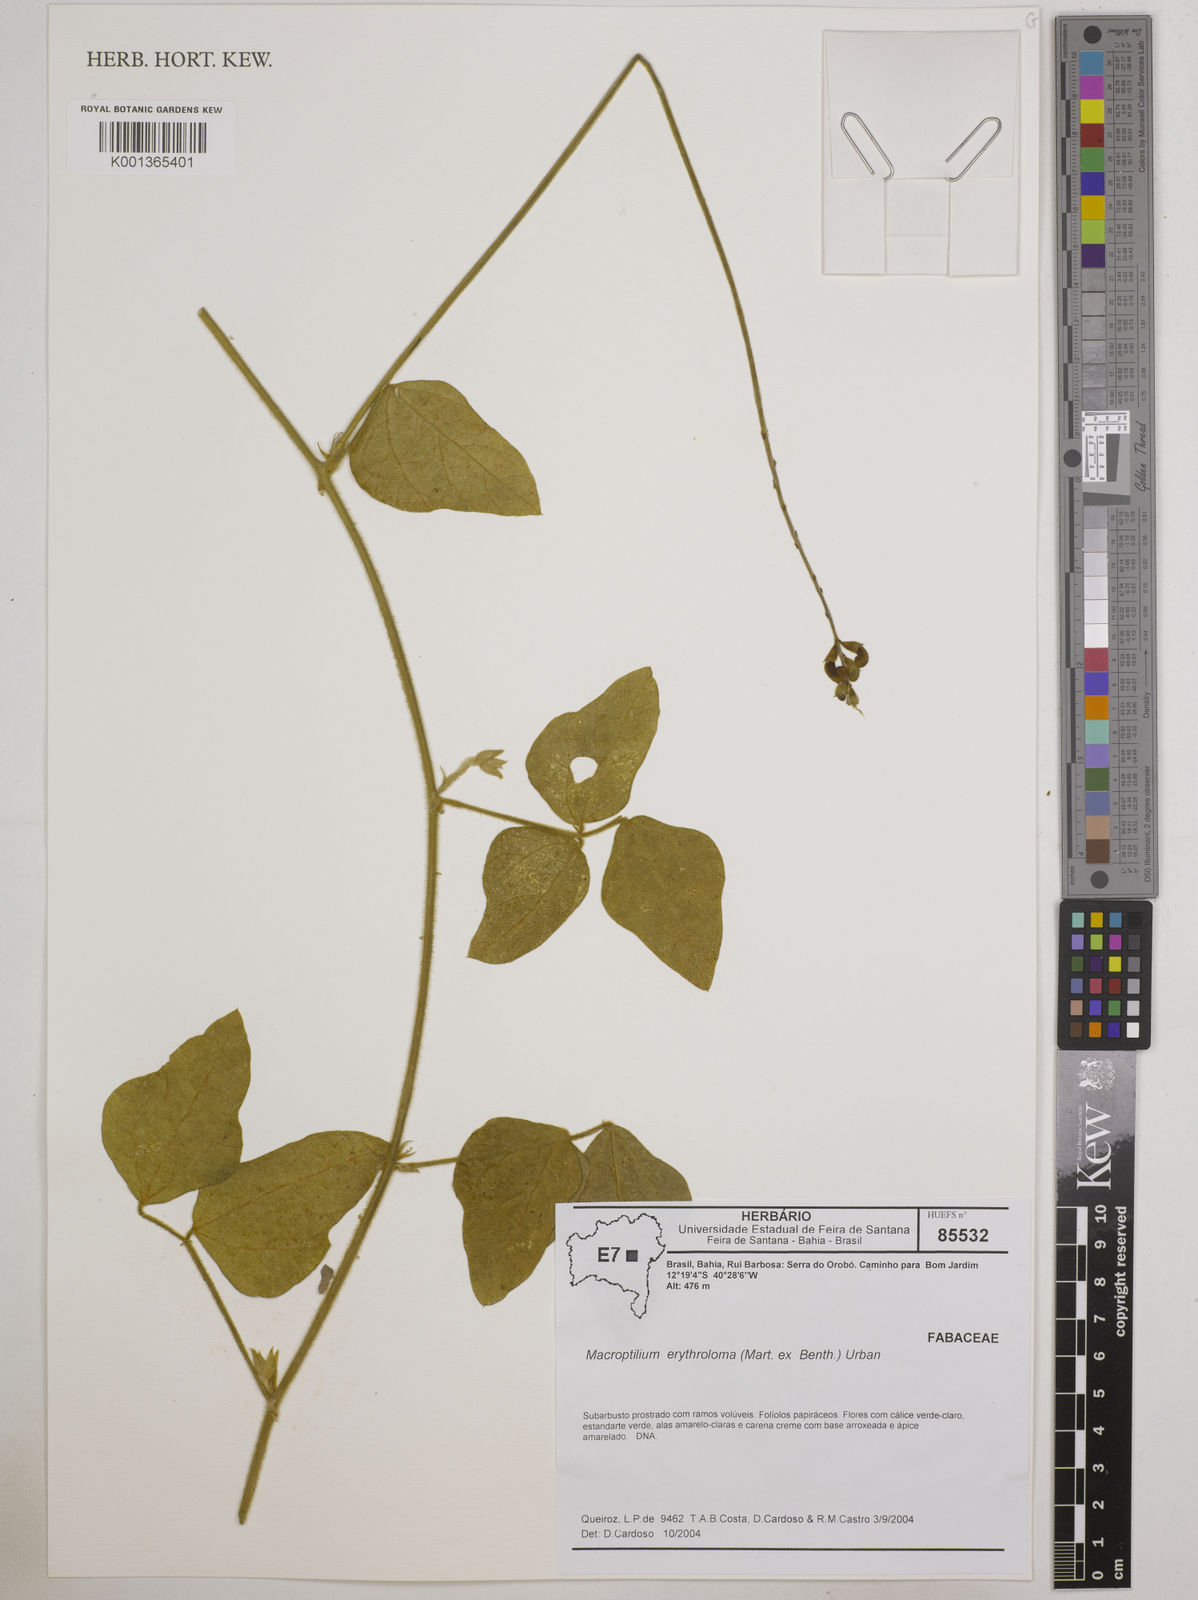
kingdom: Plantae
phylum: Tracheophyta
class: Magnoliopsida
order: Fabales
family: Fabaceae
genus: Macroptilium
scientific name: Macroptilium erythroloma
